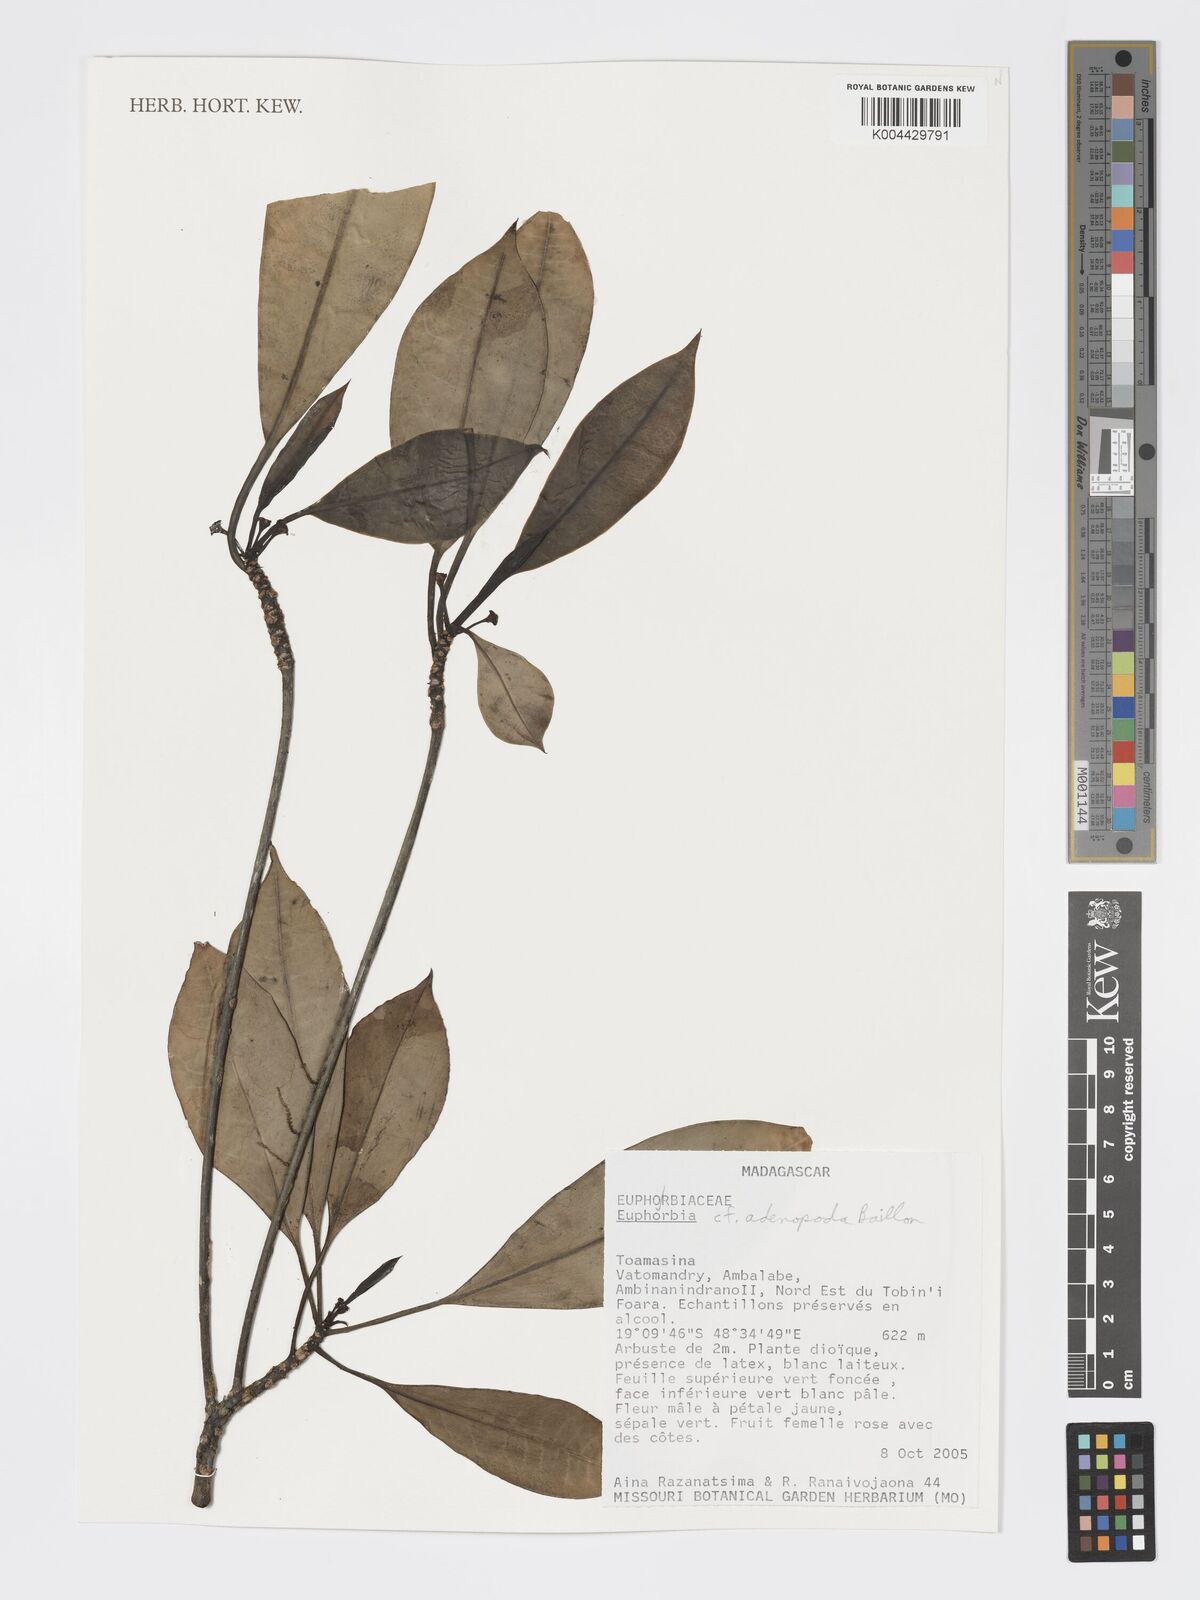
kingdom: Plantae
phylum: Tracheophyta
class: Magnoliopsida
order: Malpighiales
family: Euphorbiaceae
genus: Euphorbia
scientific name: Euphorbia adenopoda
